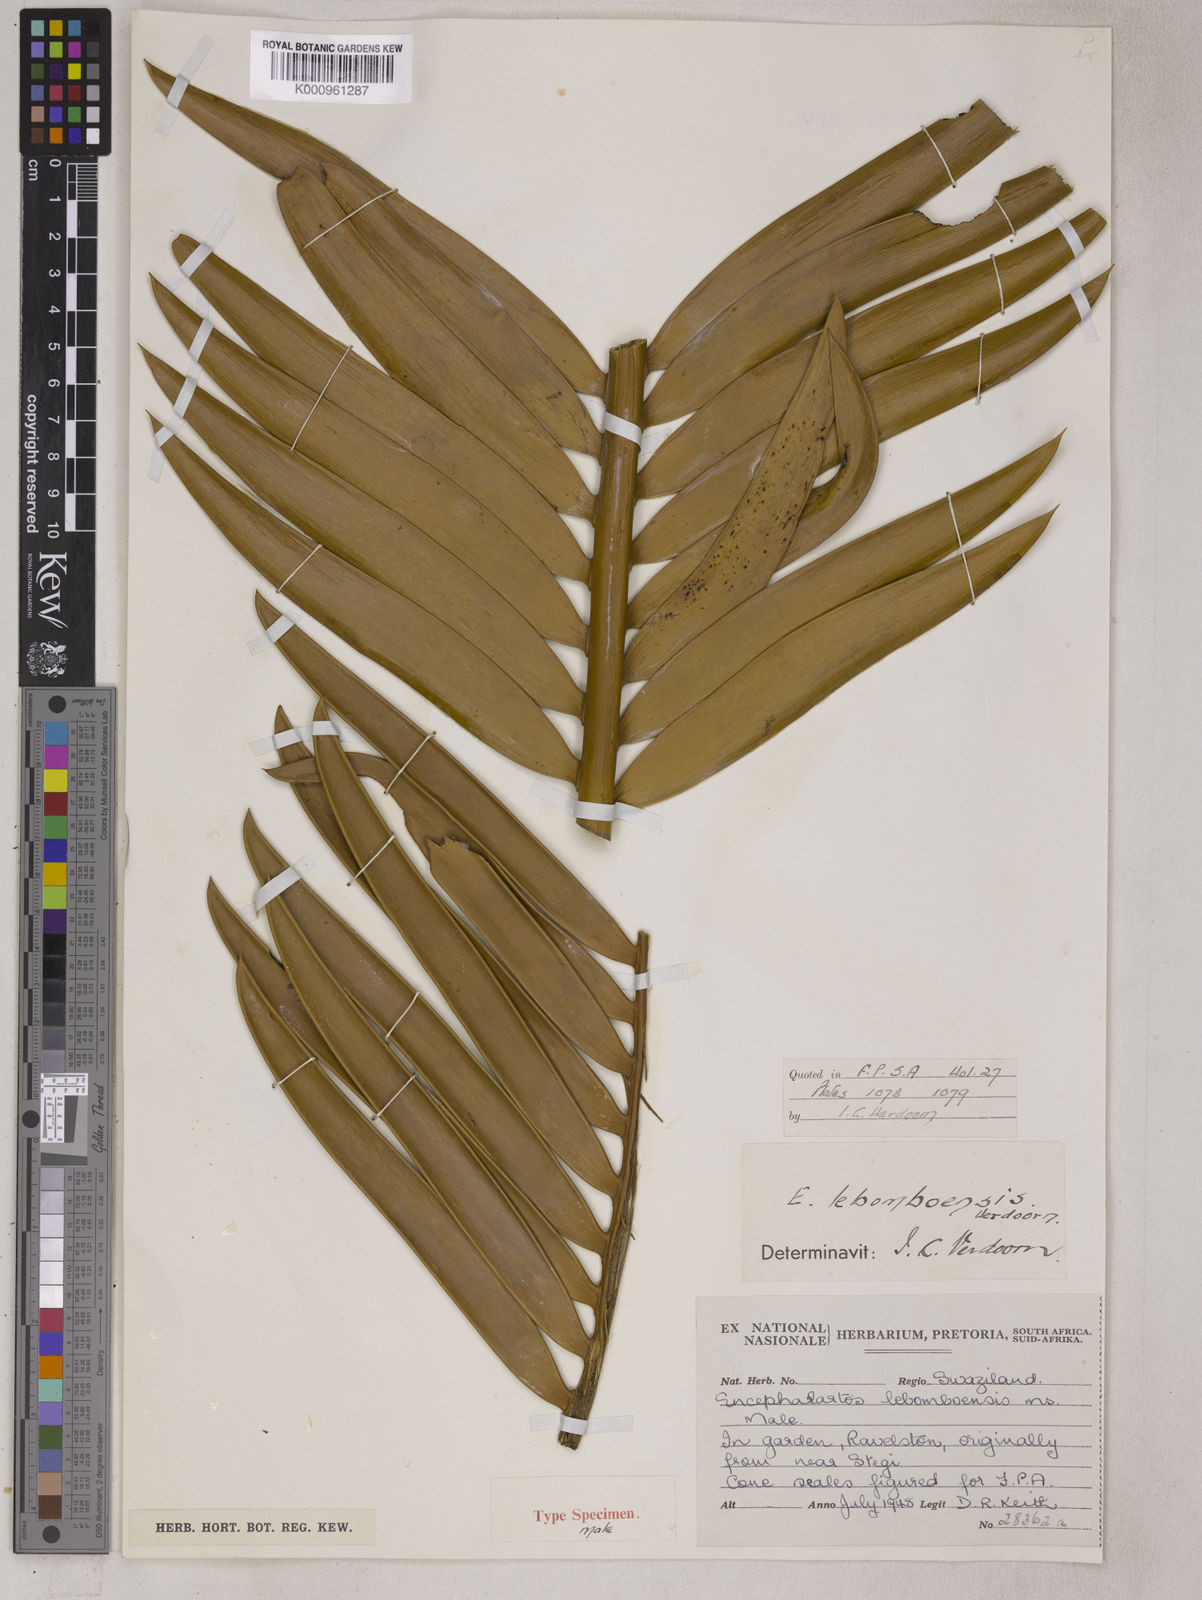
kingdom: Plantae
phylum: Tracheophyta
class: Cycadopsida
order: Cycadales
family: Zamiaceae
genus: Encephalartos
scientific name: Encephalartos lebomboensis
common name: Lebombo cycad
